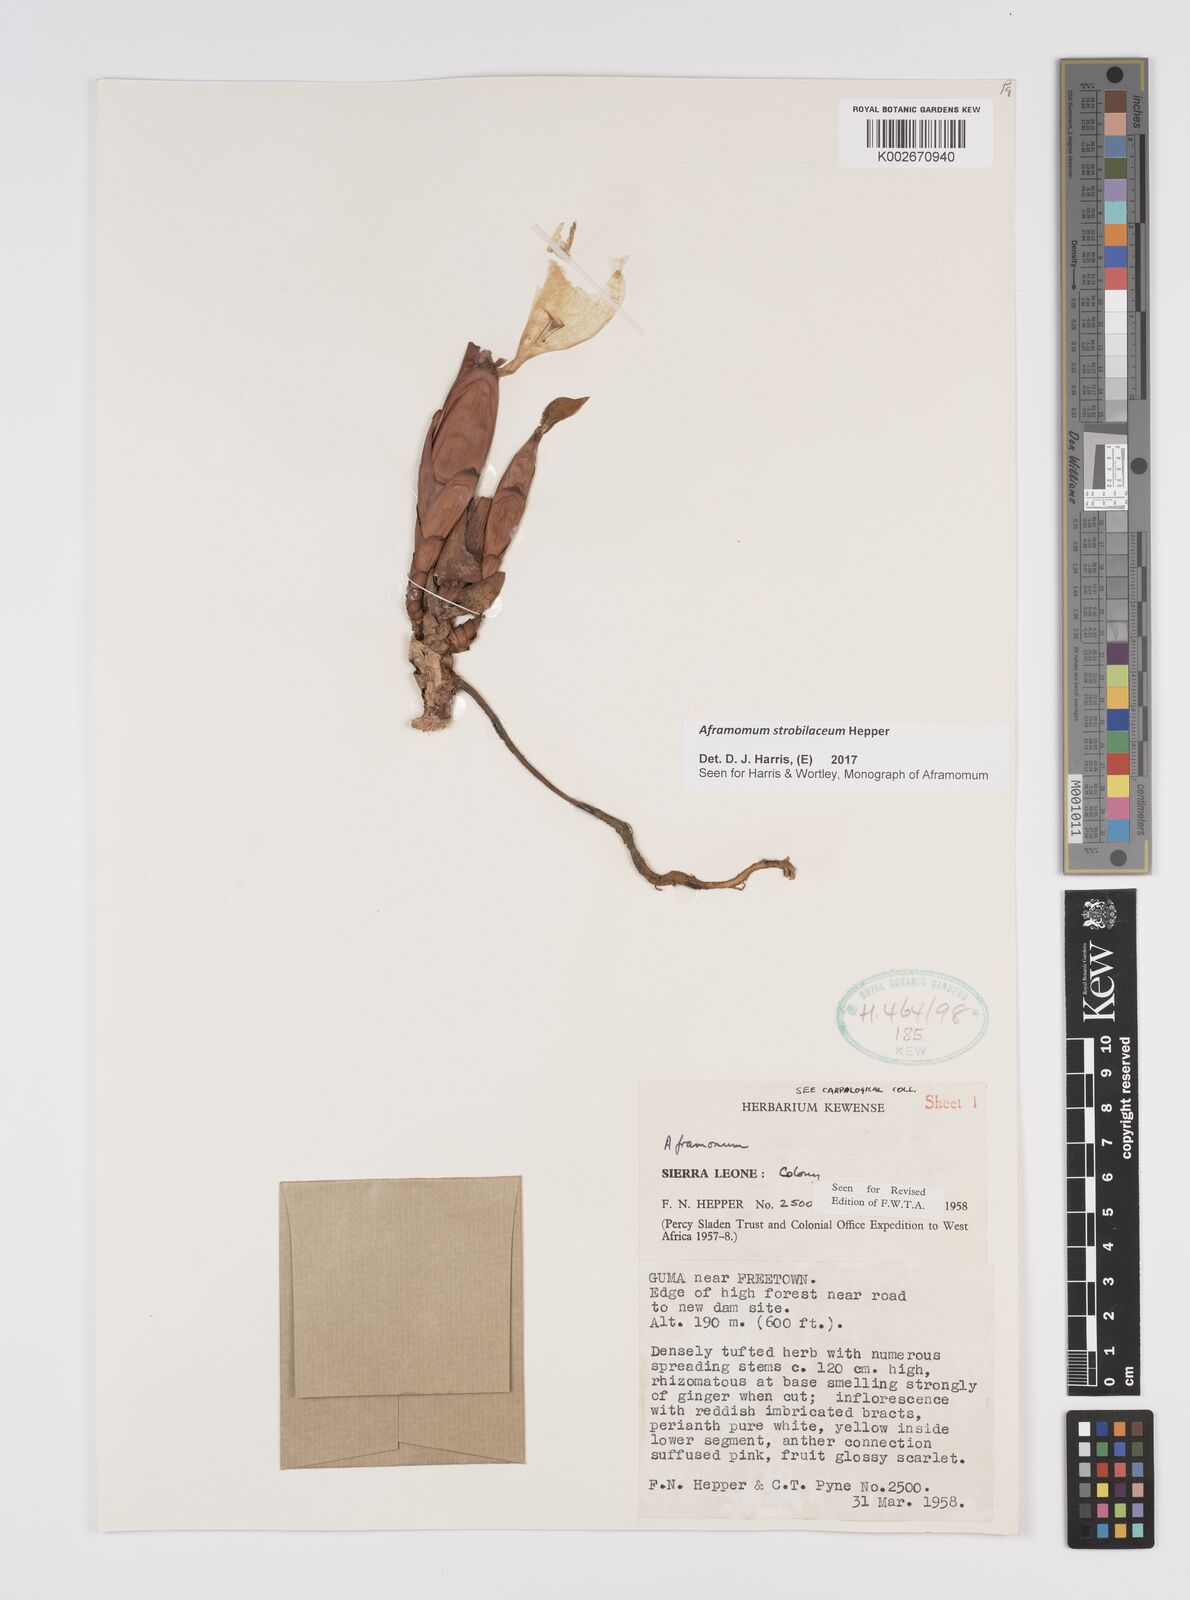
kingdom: Plantae
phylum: Tracheophyta
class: Liliopsida
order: Zingiberales
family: Zingiberaceae
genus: Aframomum
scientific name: Aframomum strobilaceum
